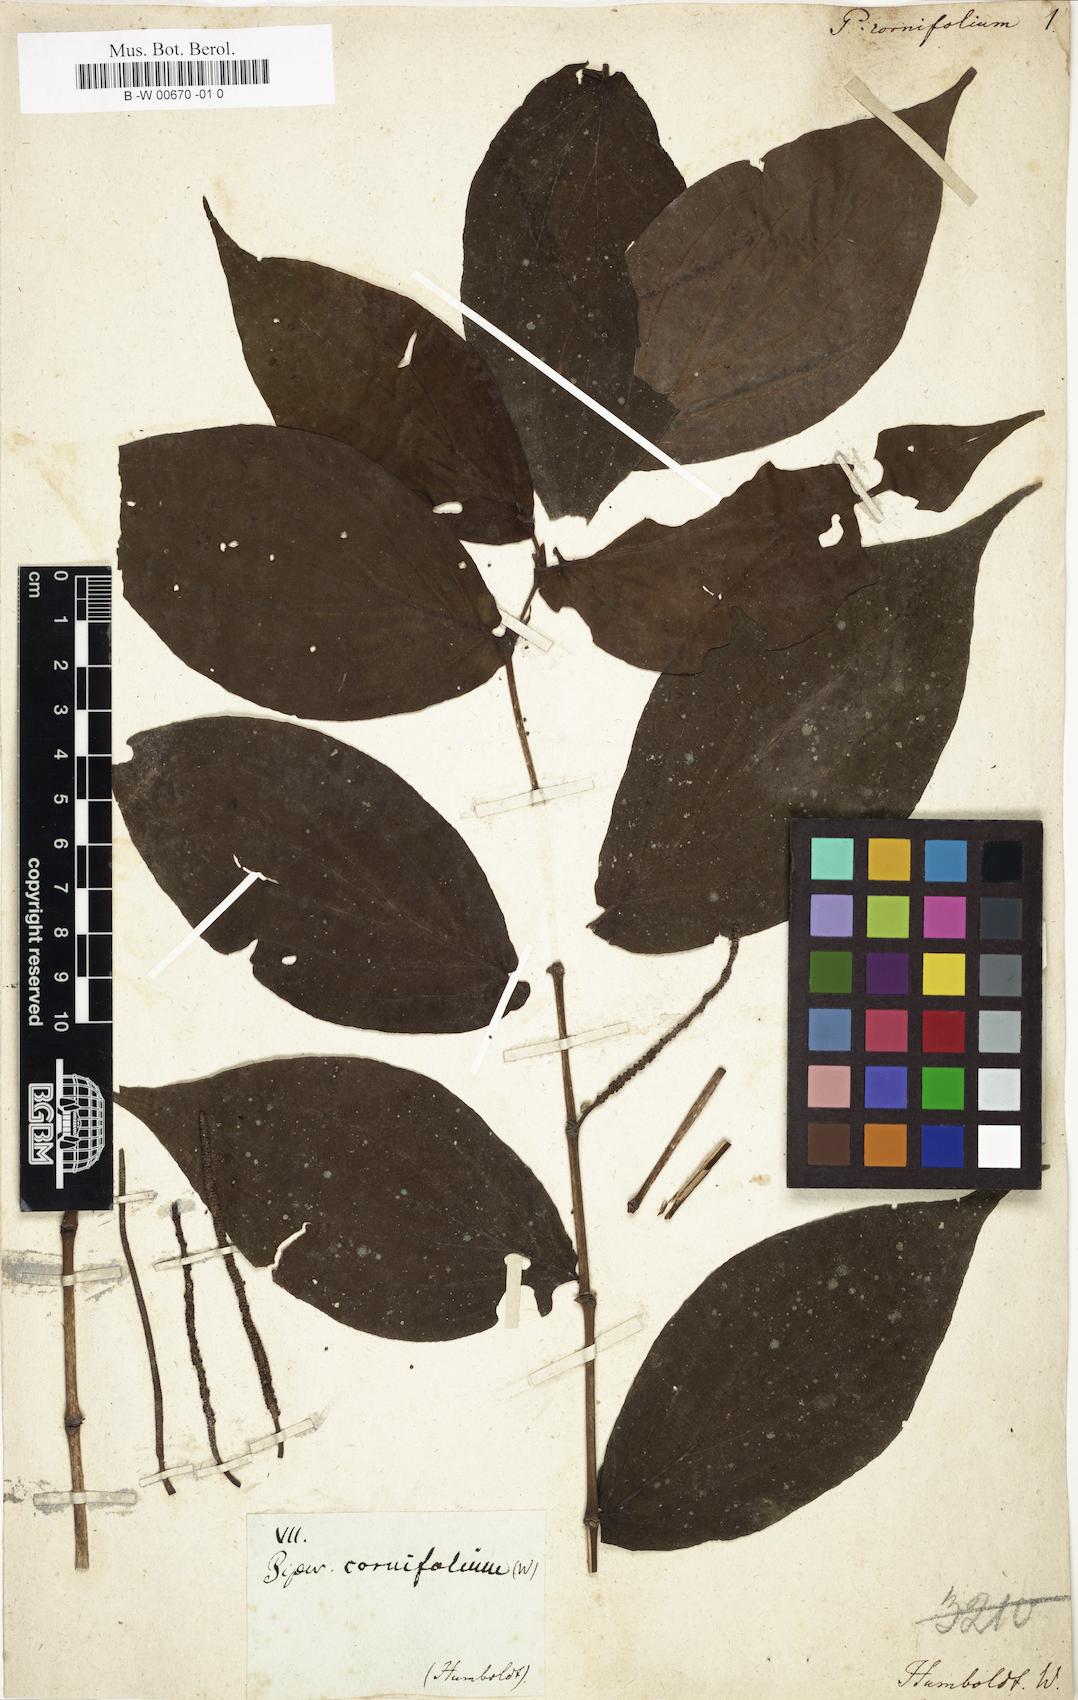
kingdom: Plantae
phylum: Tracheophyta
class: Magnoliopsida
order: Piperales
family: Piperaceae
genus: Piper
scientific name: Piper cornifolium
